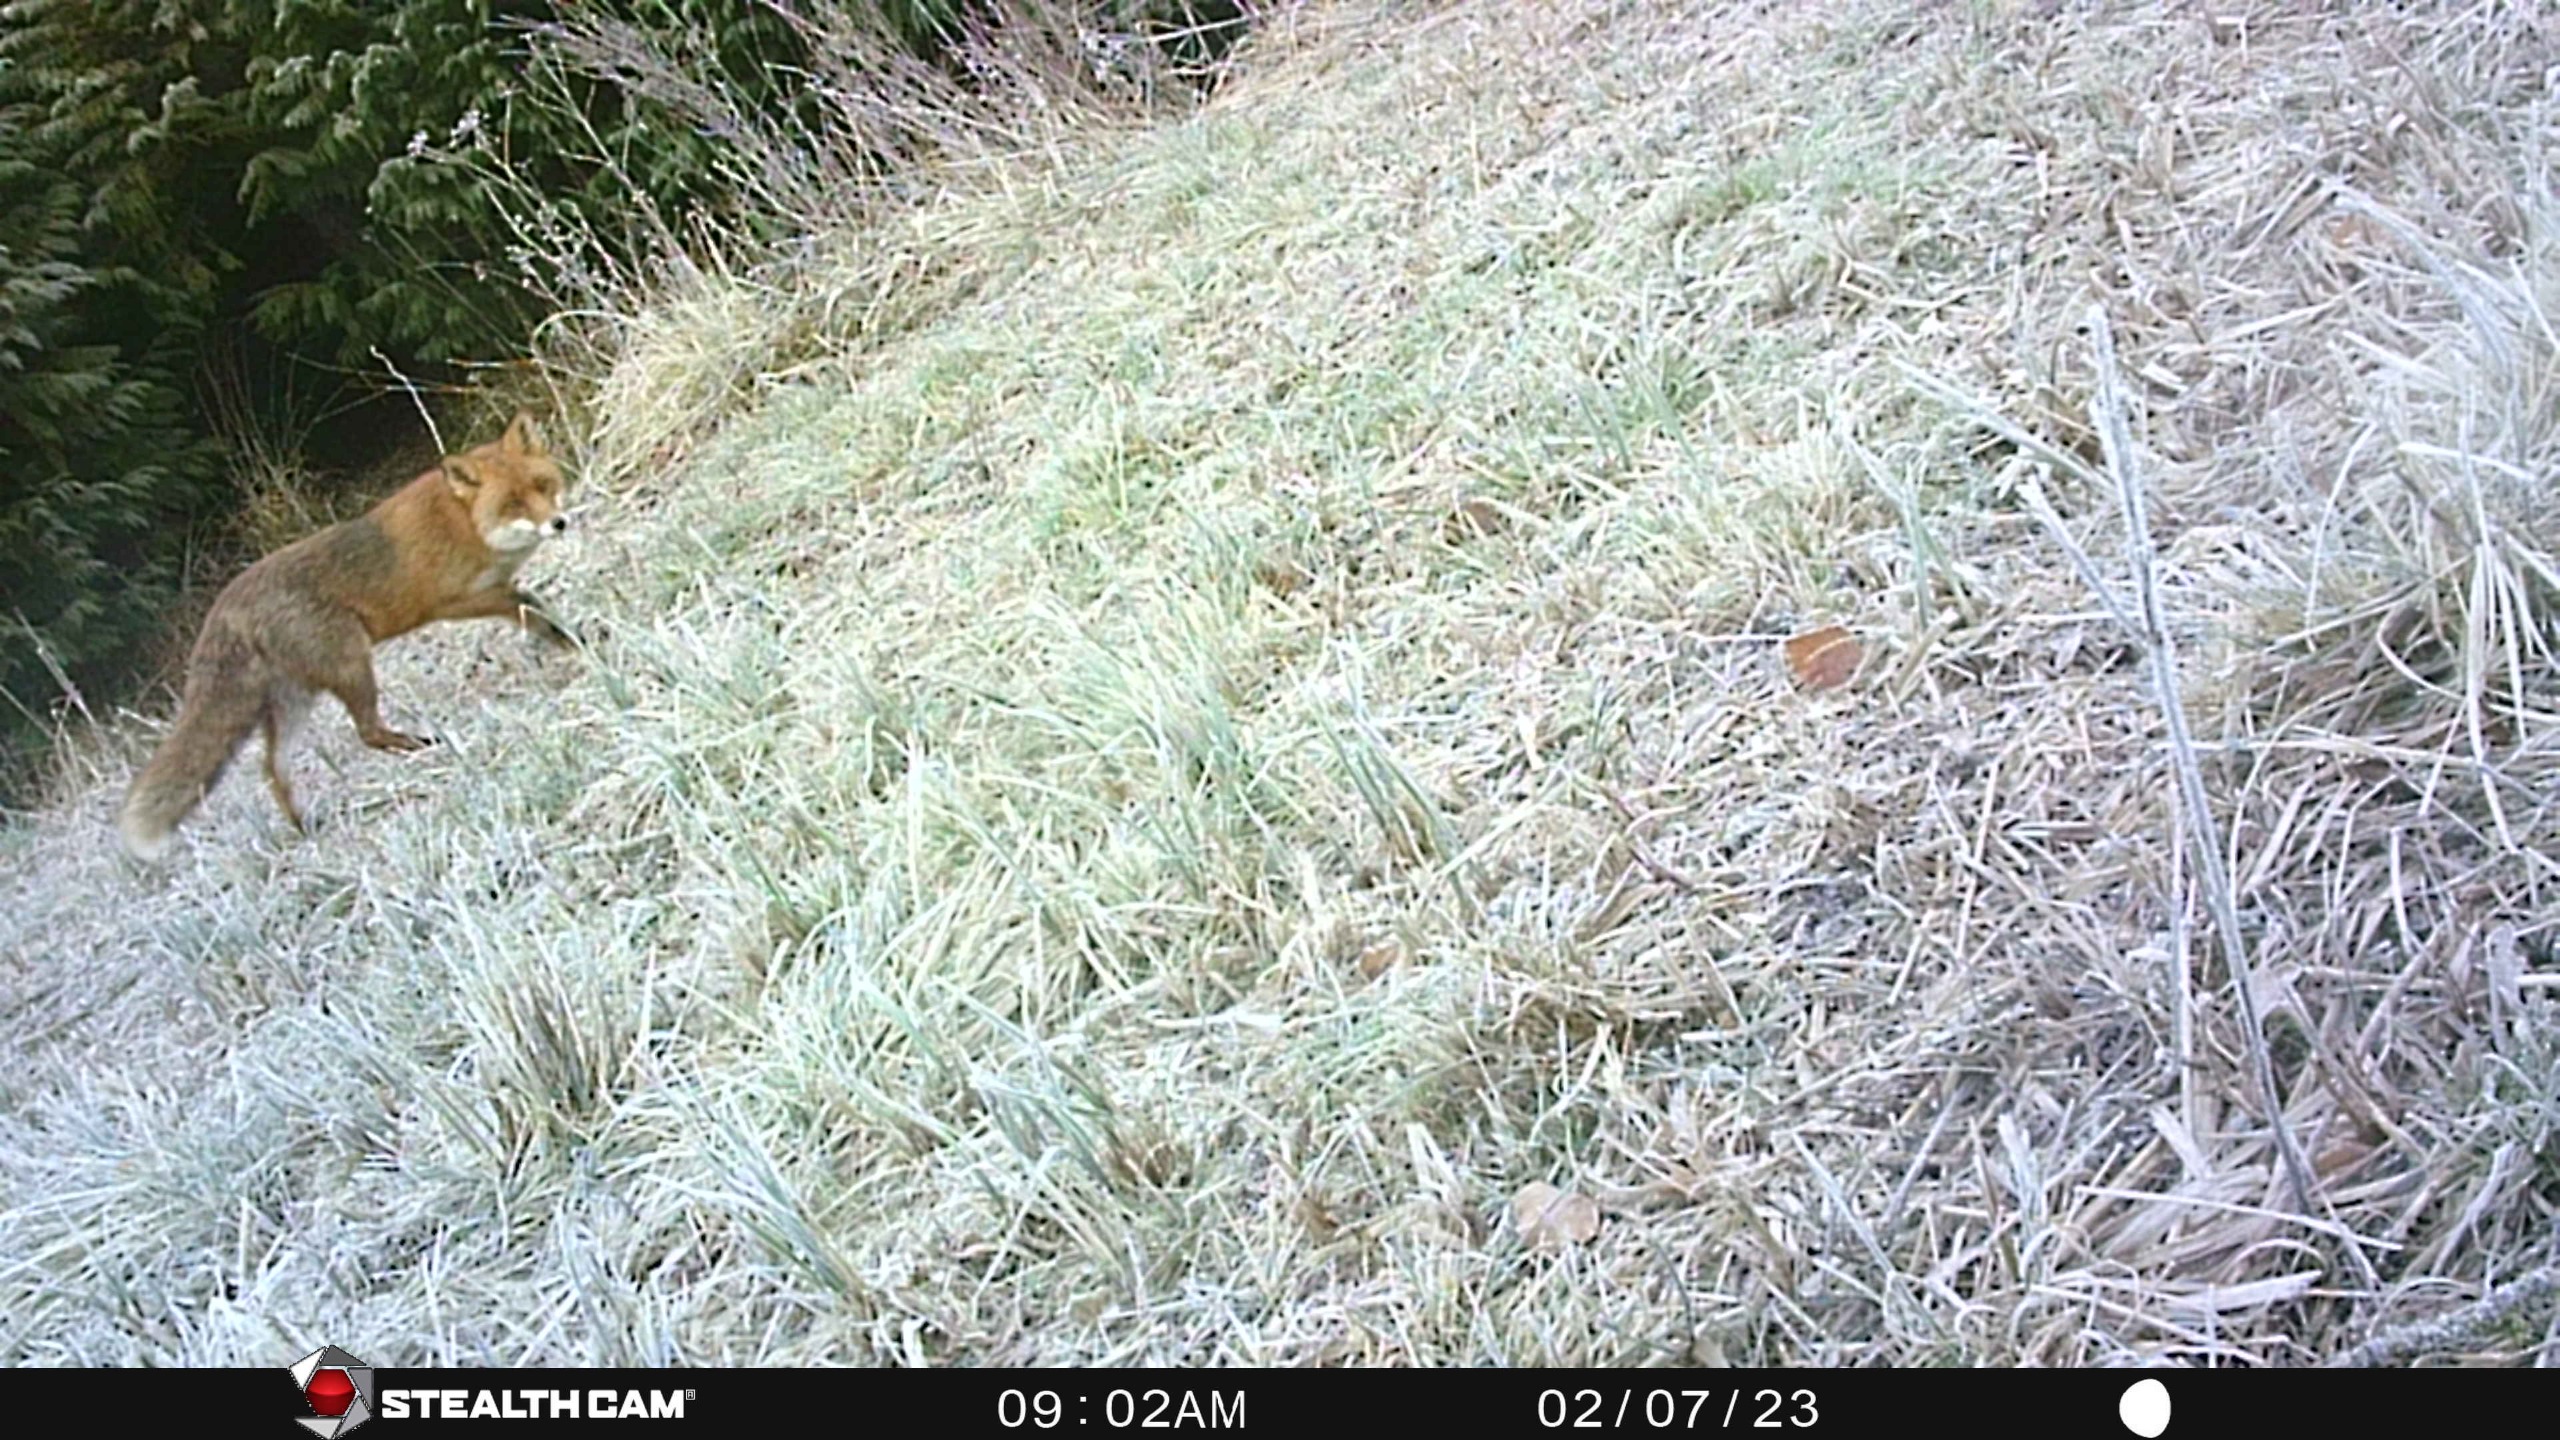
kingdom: Animalia
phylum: Chordata
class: Mammalia
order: Carnivora
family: Canidae
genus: Vulpes
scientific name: Vulpes vulpes
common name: Ræv
